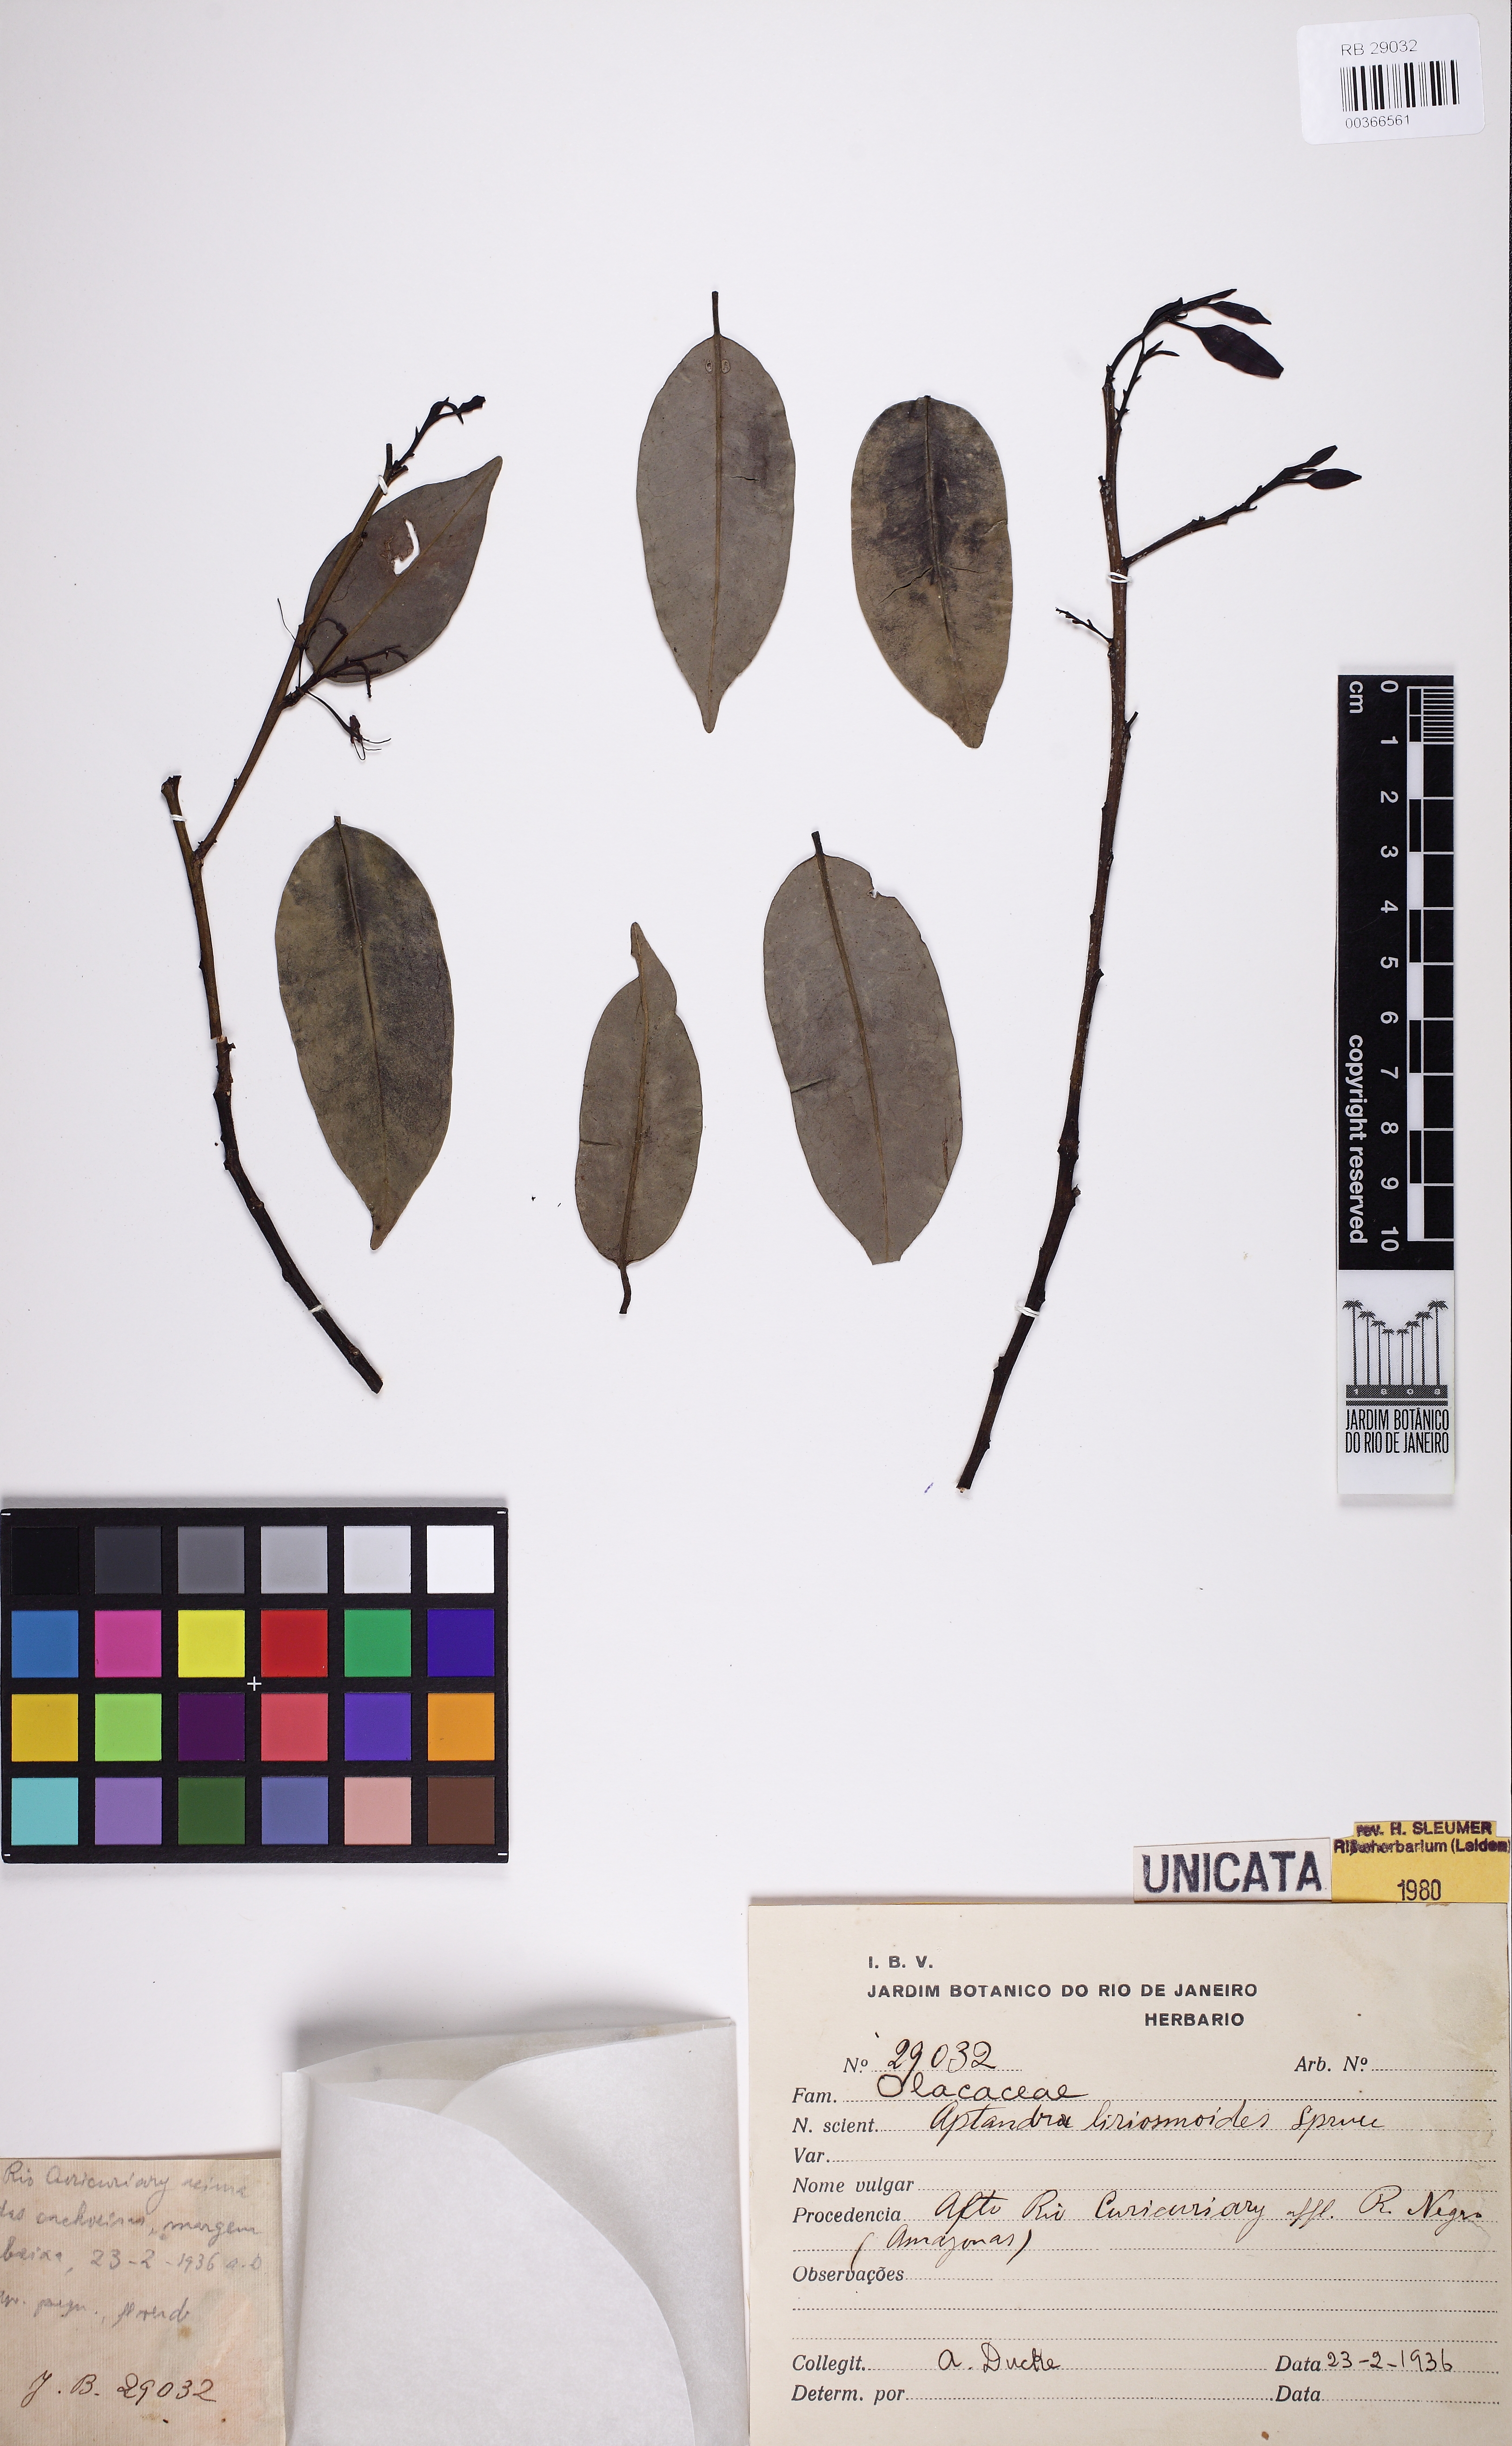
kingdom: Plantae
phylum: Tracheophyta
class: Magnoliopsida
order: Santalales
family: Aptandraceae
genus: Aptandra
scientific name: Aptandra liriosmoides
